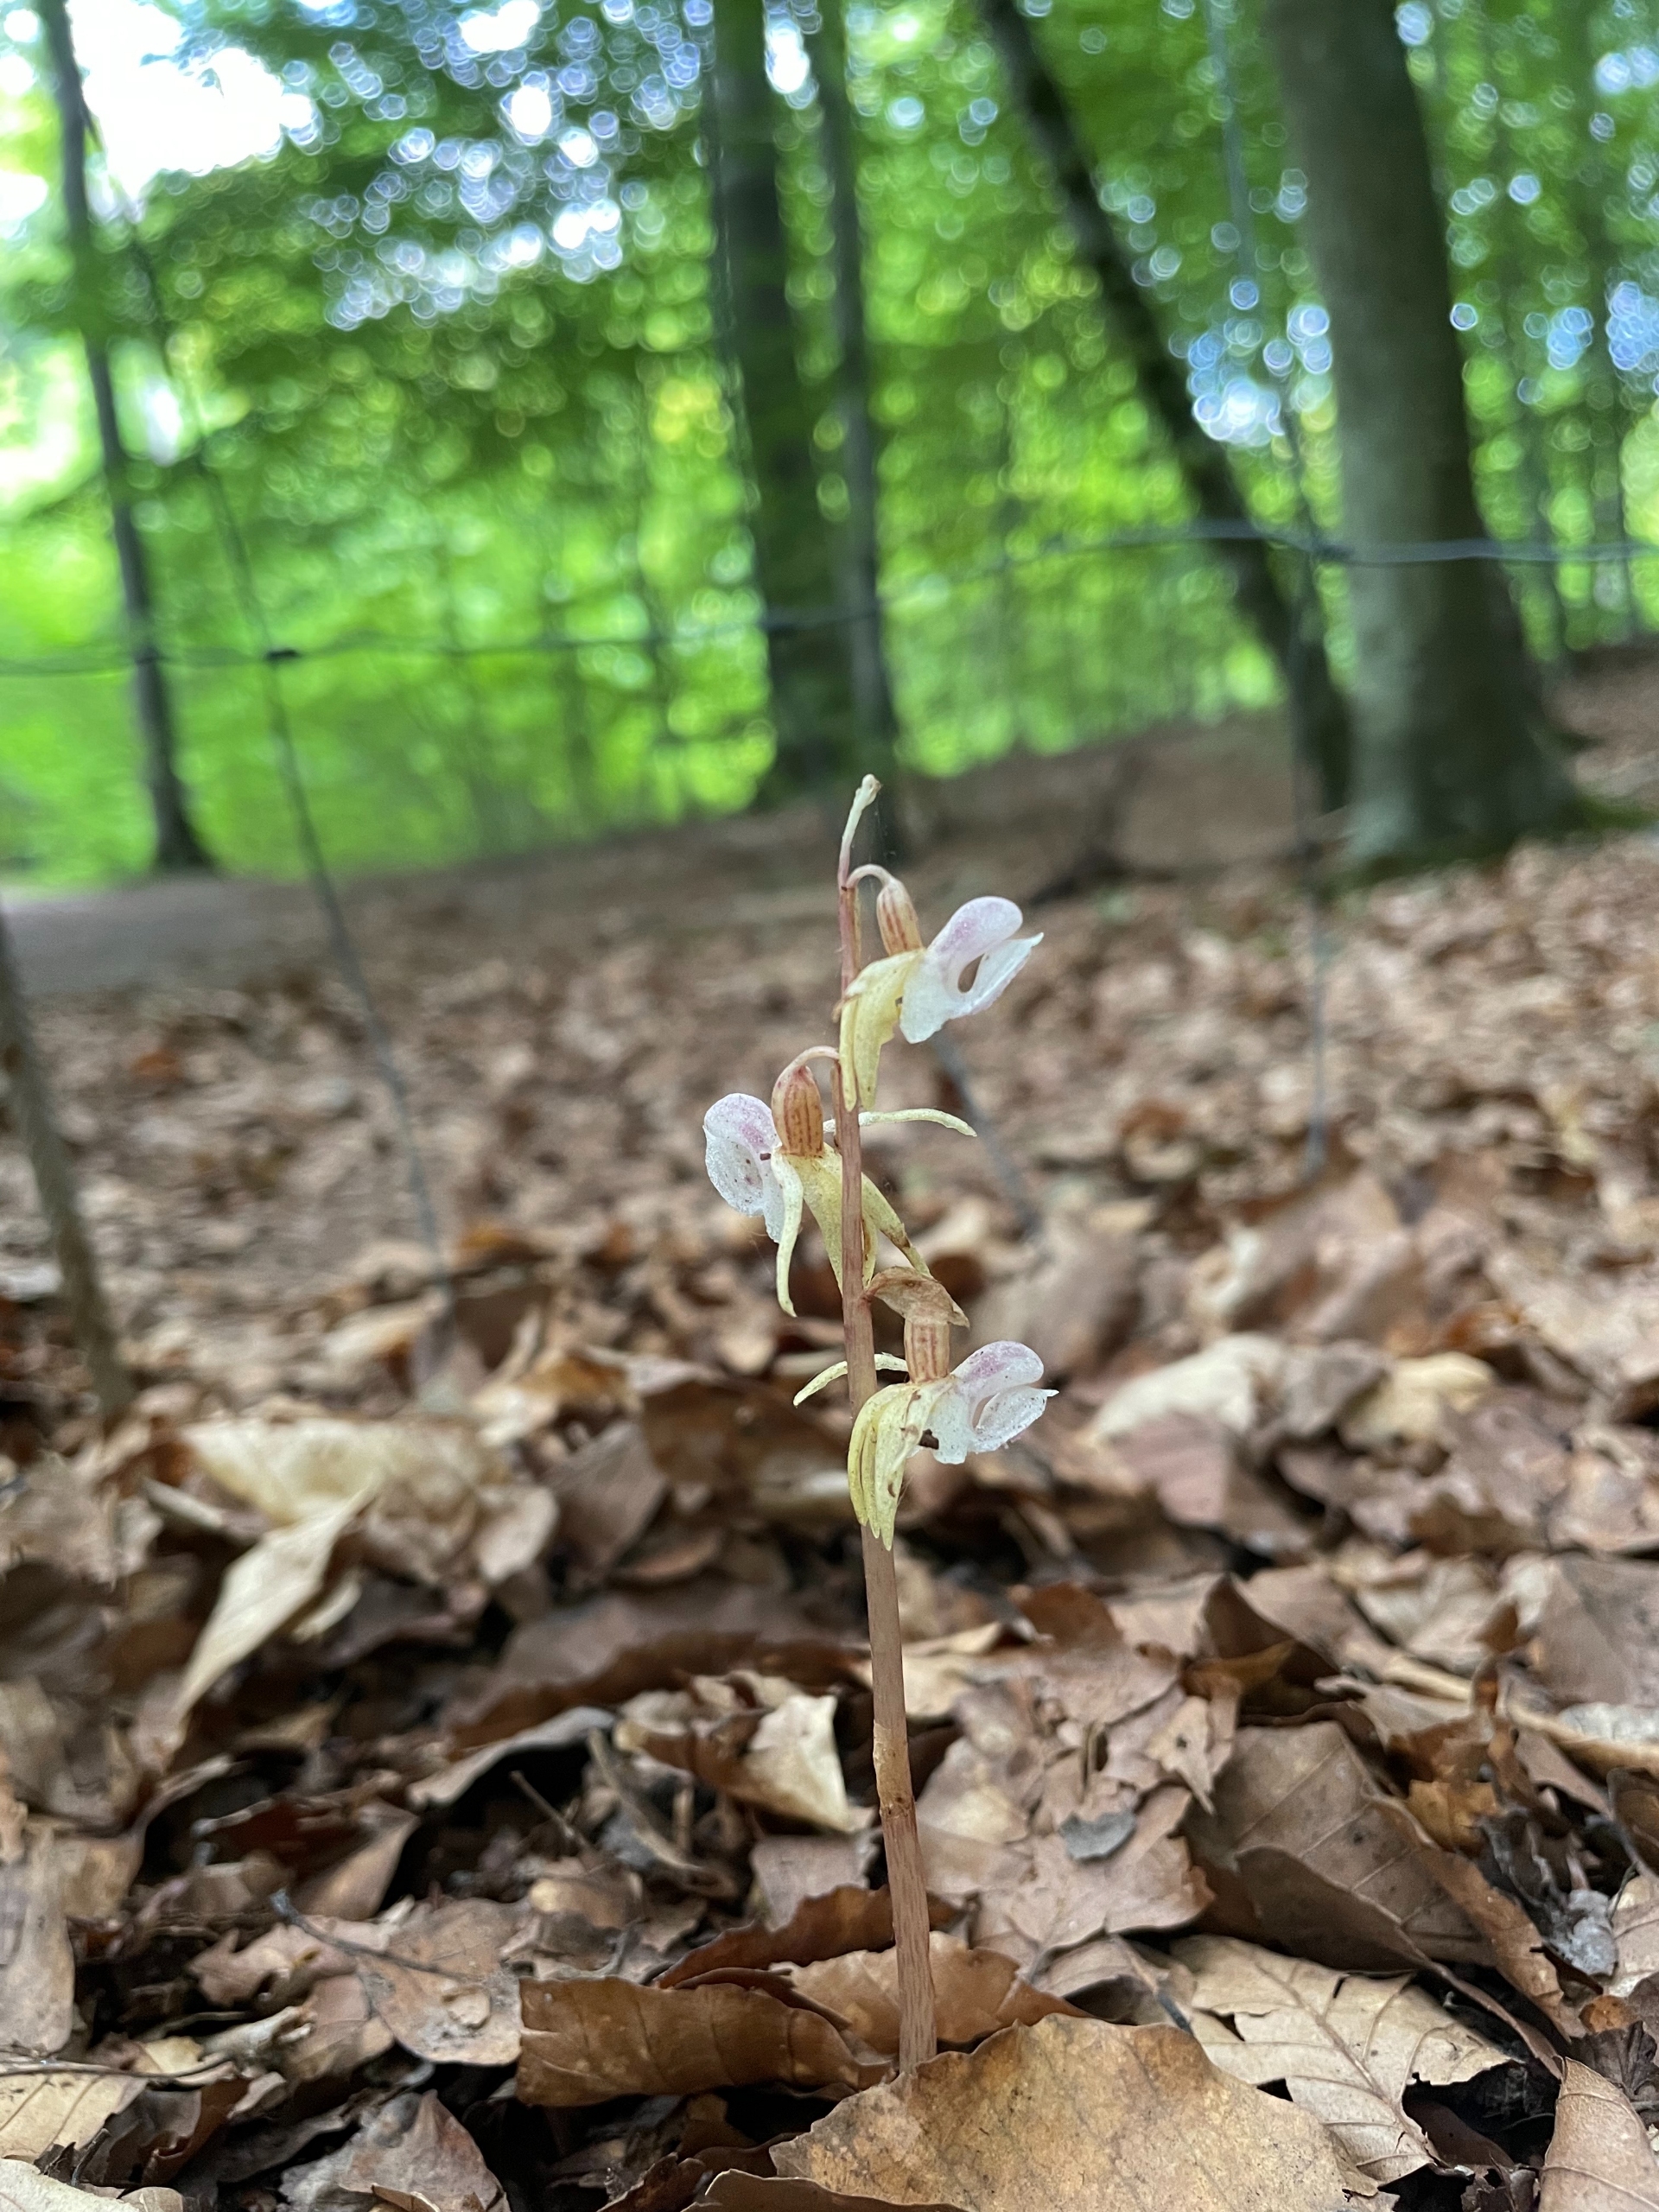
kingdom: Plantae
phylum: Tracheophyta
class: Liliopsida
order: Asparagales
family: Orchidaceae
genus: Epipogium
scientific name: Epipogium aphyllum
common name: Knælæbe
